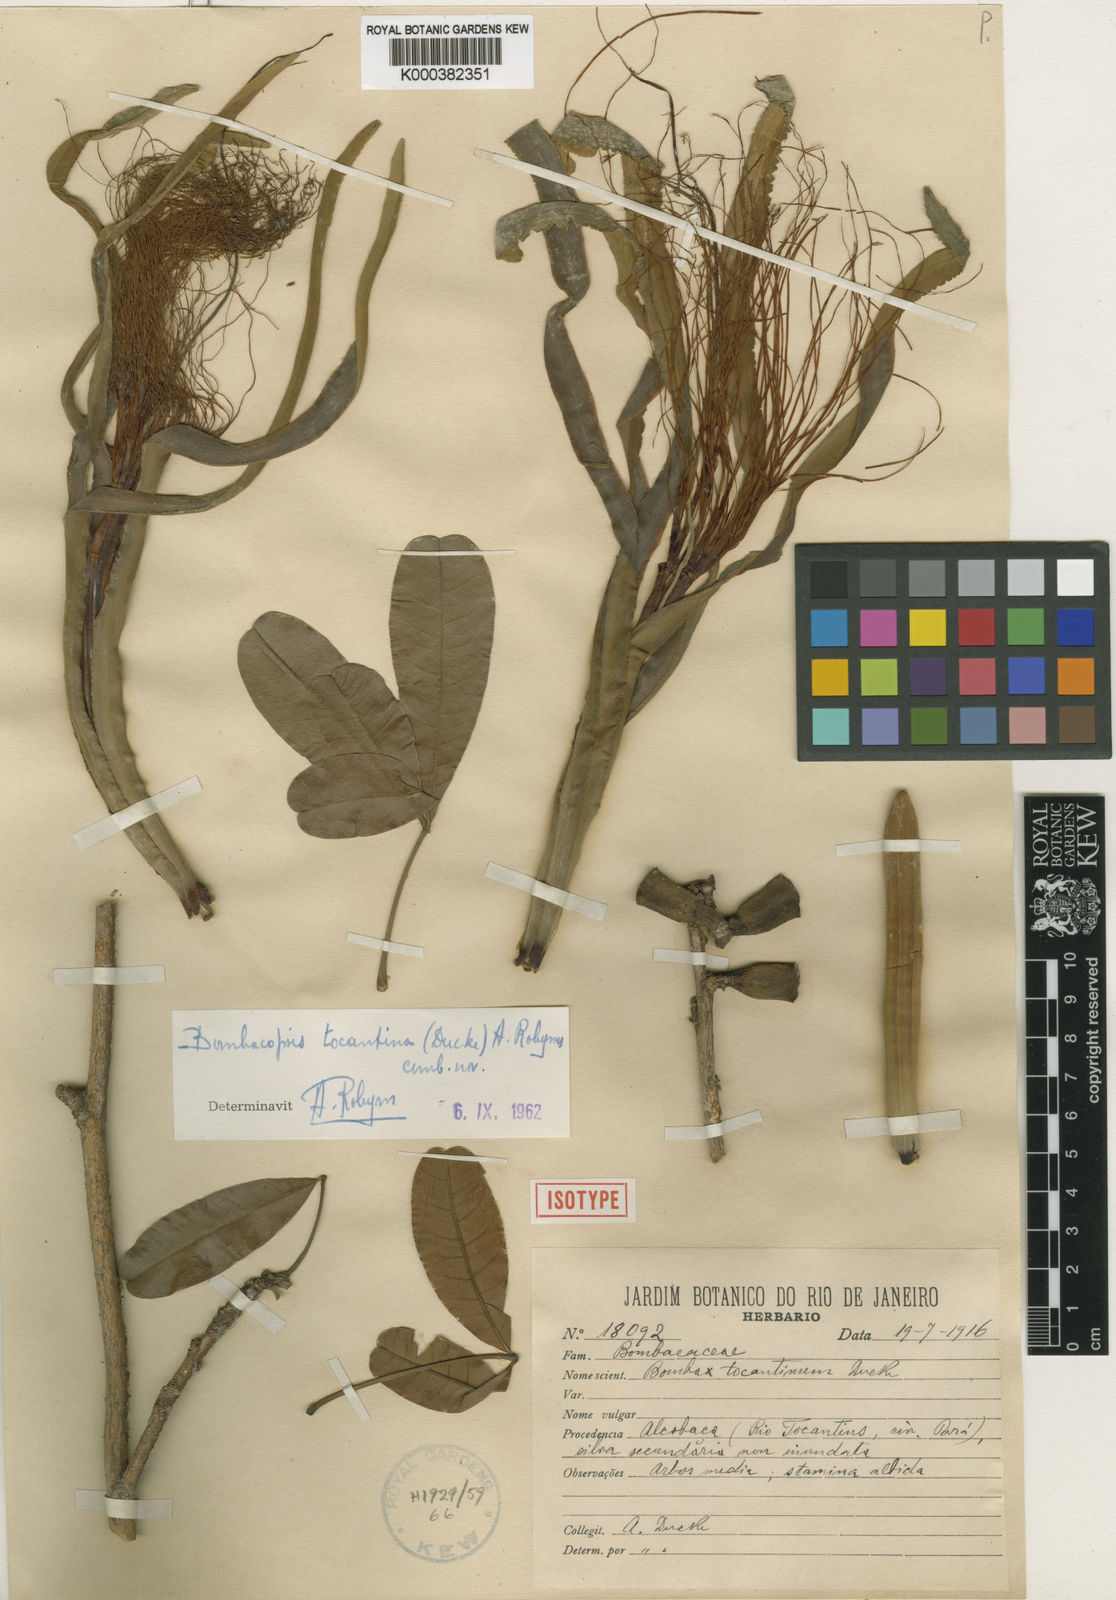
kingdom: Plantae
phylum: Tracheophyta
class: Magnoliopsida
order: Malvales
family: Malvaceae
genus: Pachira
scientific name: Pachira tocantina
